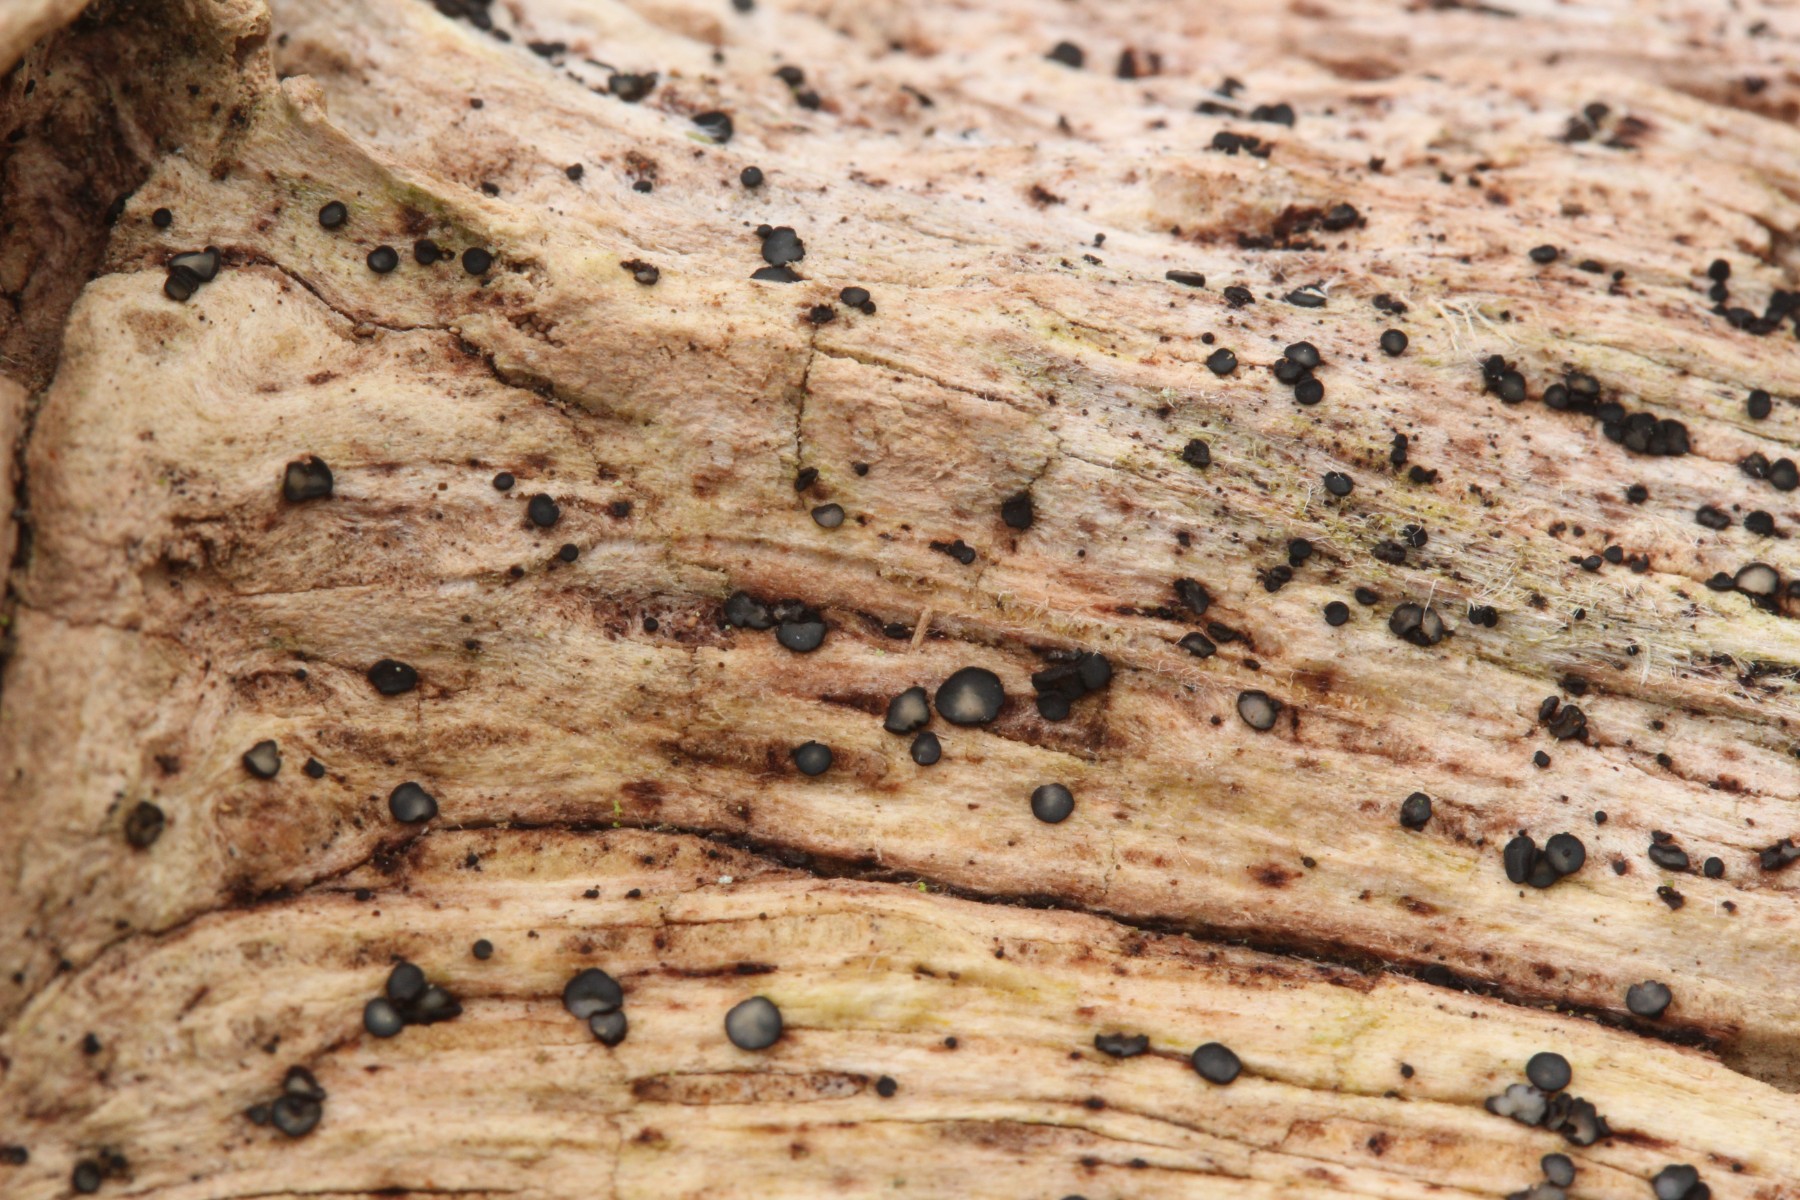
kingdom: Fungi
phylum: Ascomycota
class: Leotiomycetes
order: Helotiales
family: Mollisiaceae
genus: Mollisia
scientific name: Mollisia
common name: gråskive
